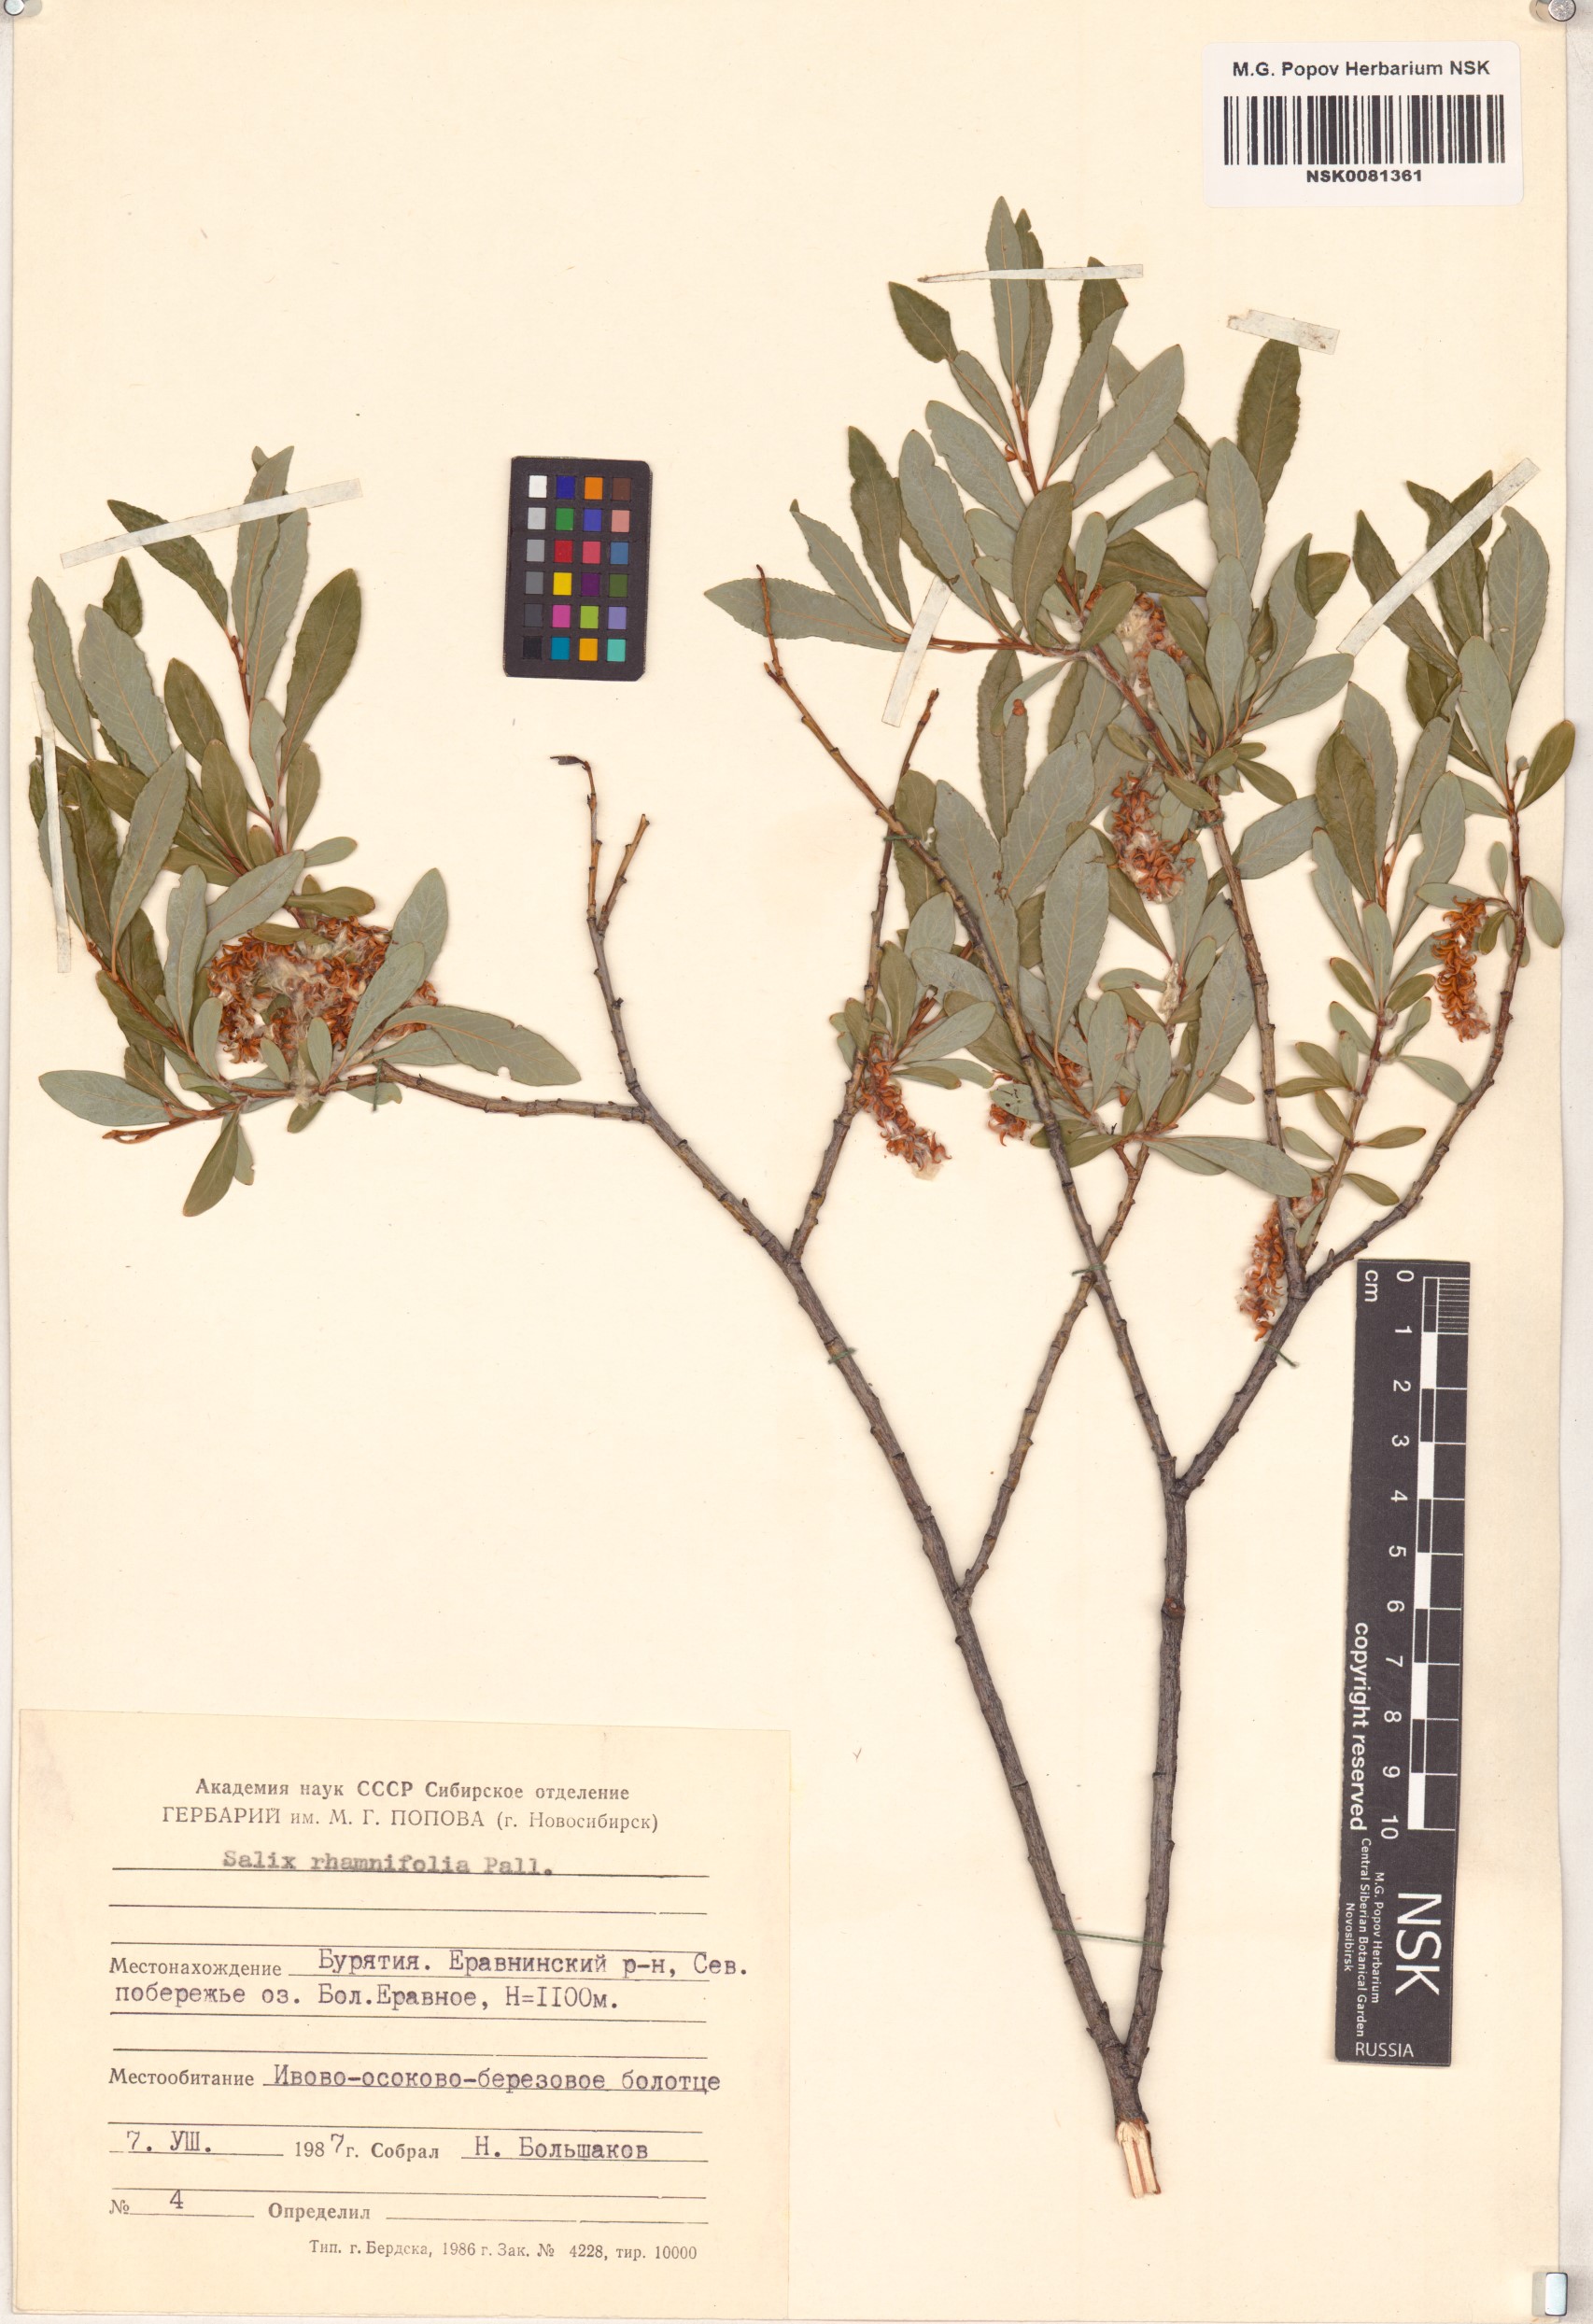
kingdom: Plantae
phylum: Tracheophyta
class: Magnoliopsida
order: Malpighiales
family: Salicaceae
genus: Salix
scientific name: Salix rhamnifolia
